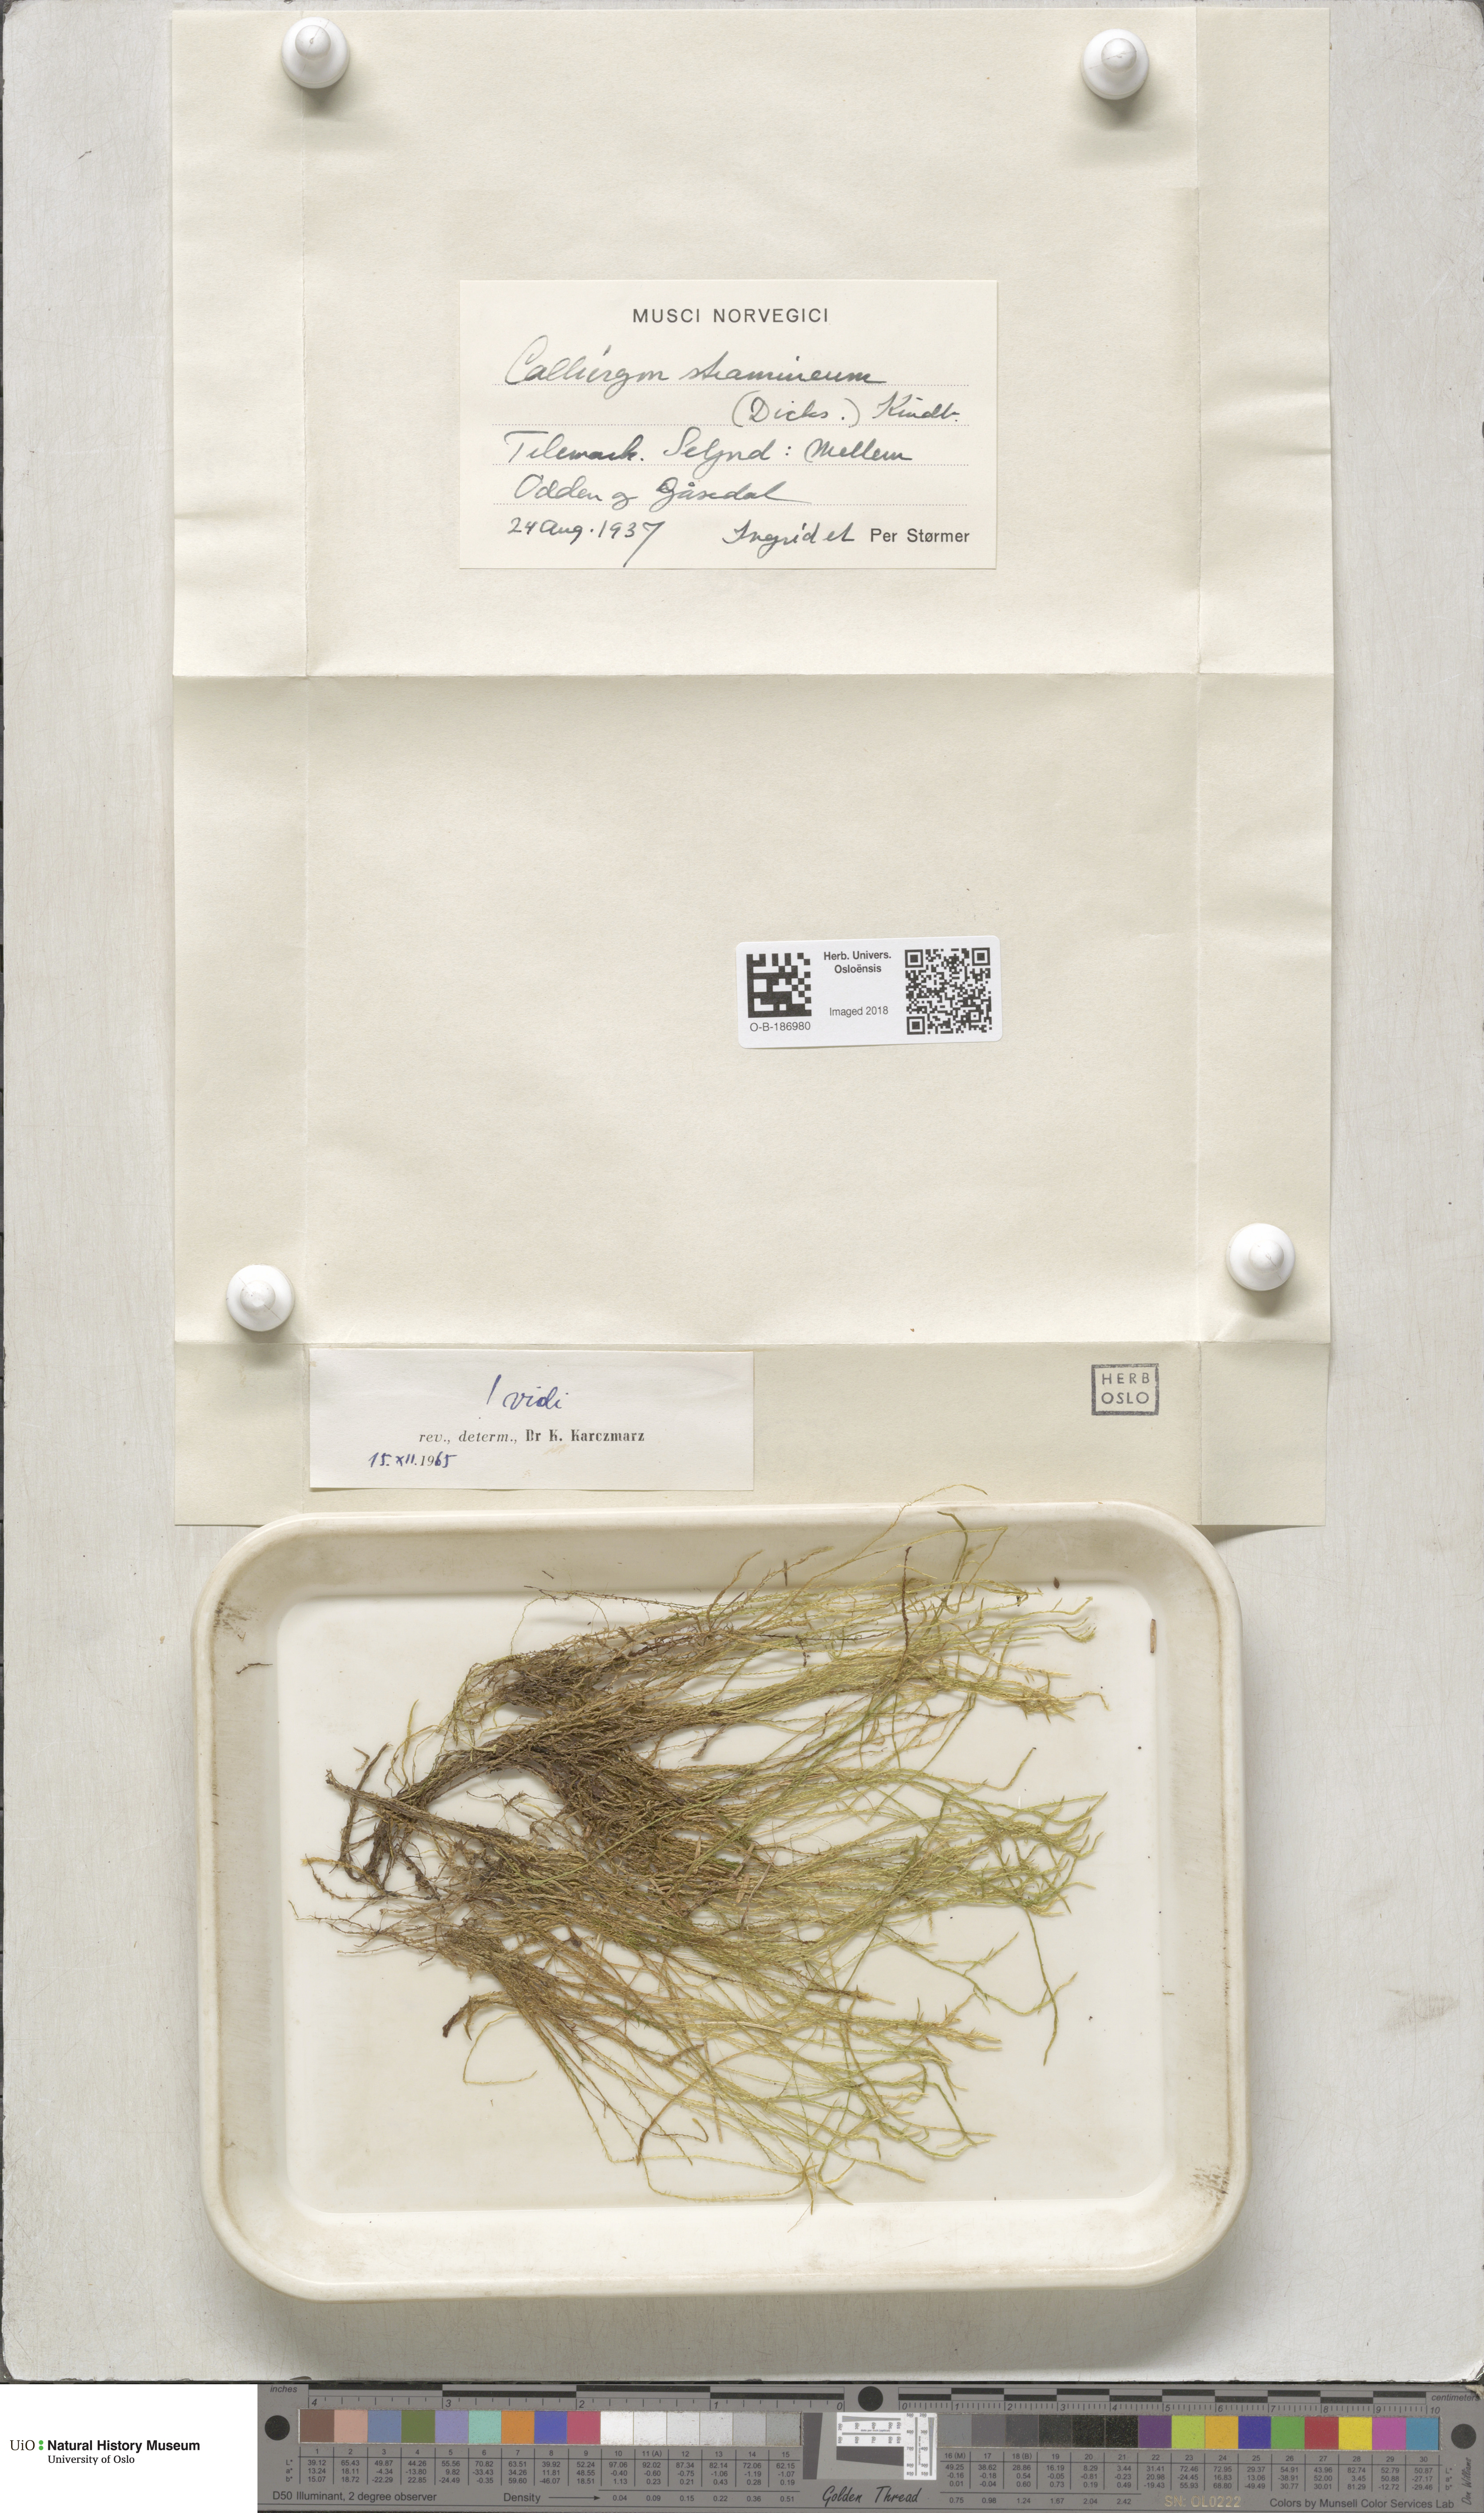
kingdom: Plantae
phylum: Bryophyta
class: Bryopsida
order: Hypnales
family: Calliergonaceae
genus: Straminergon
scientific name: Straminergon stramineum
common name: Straw moss
